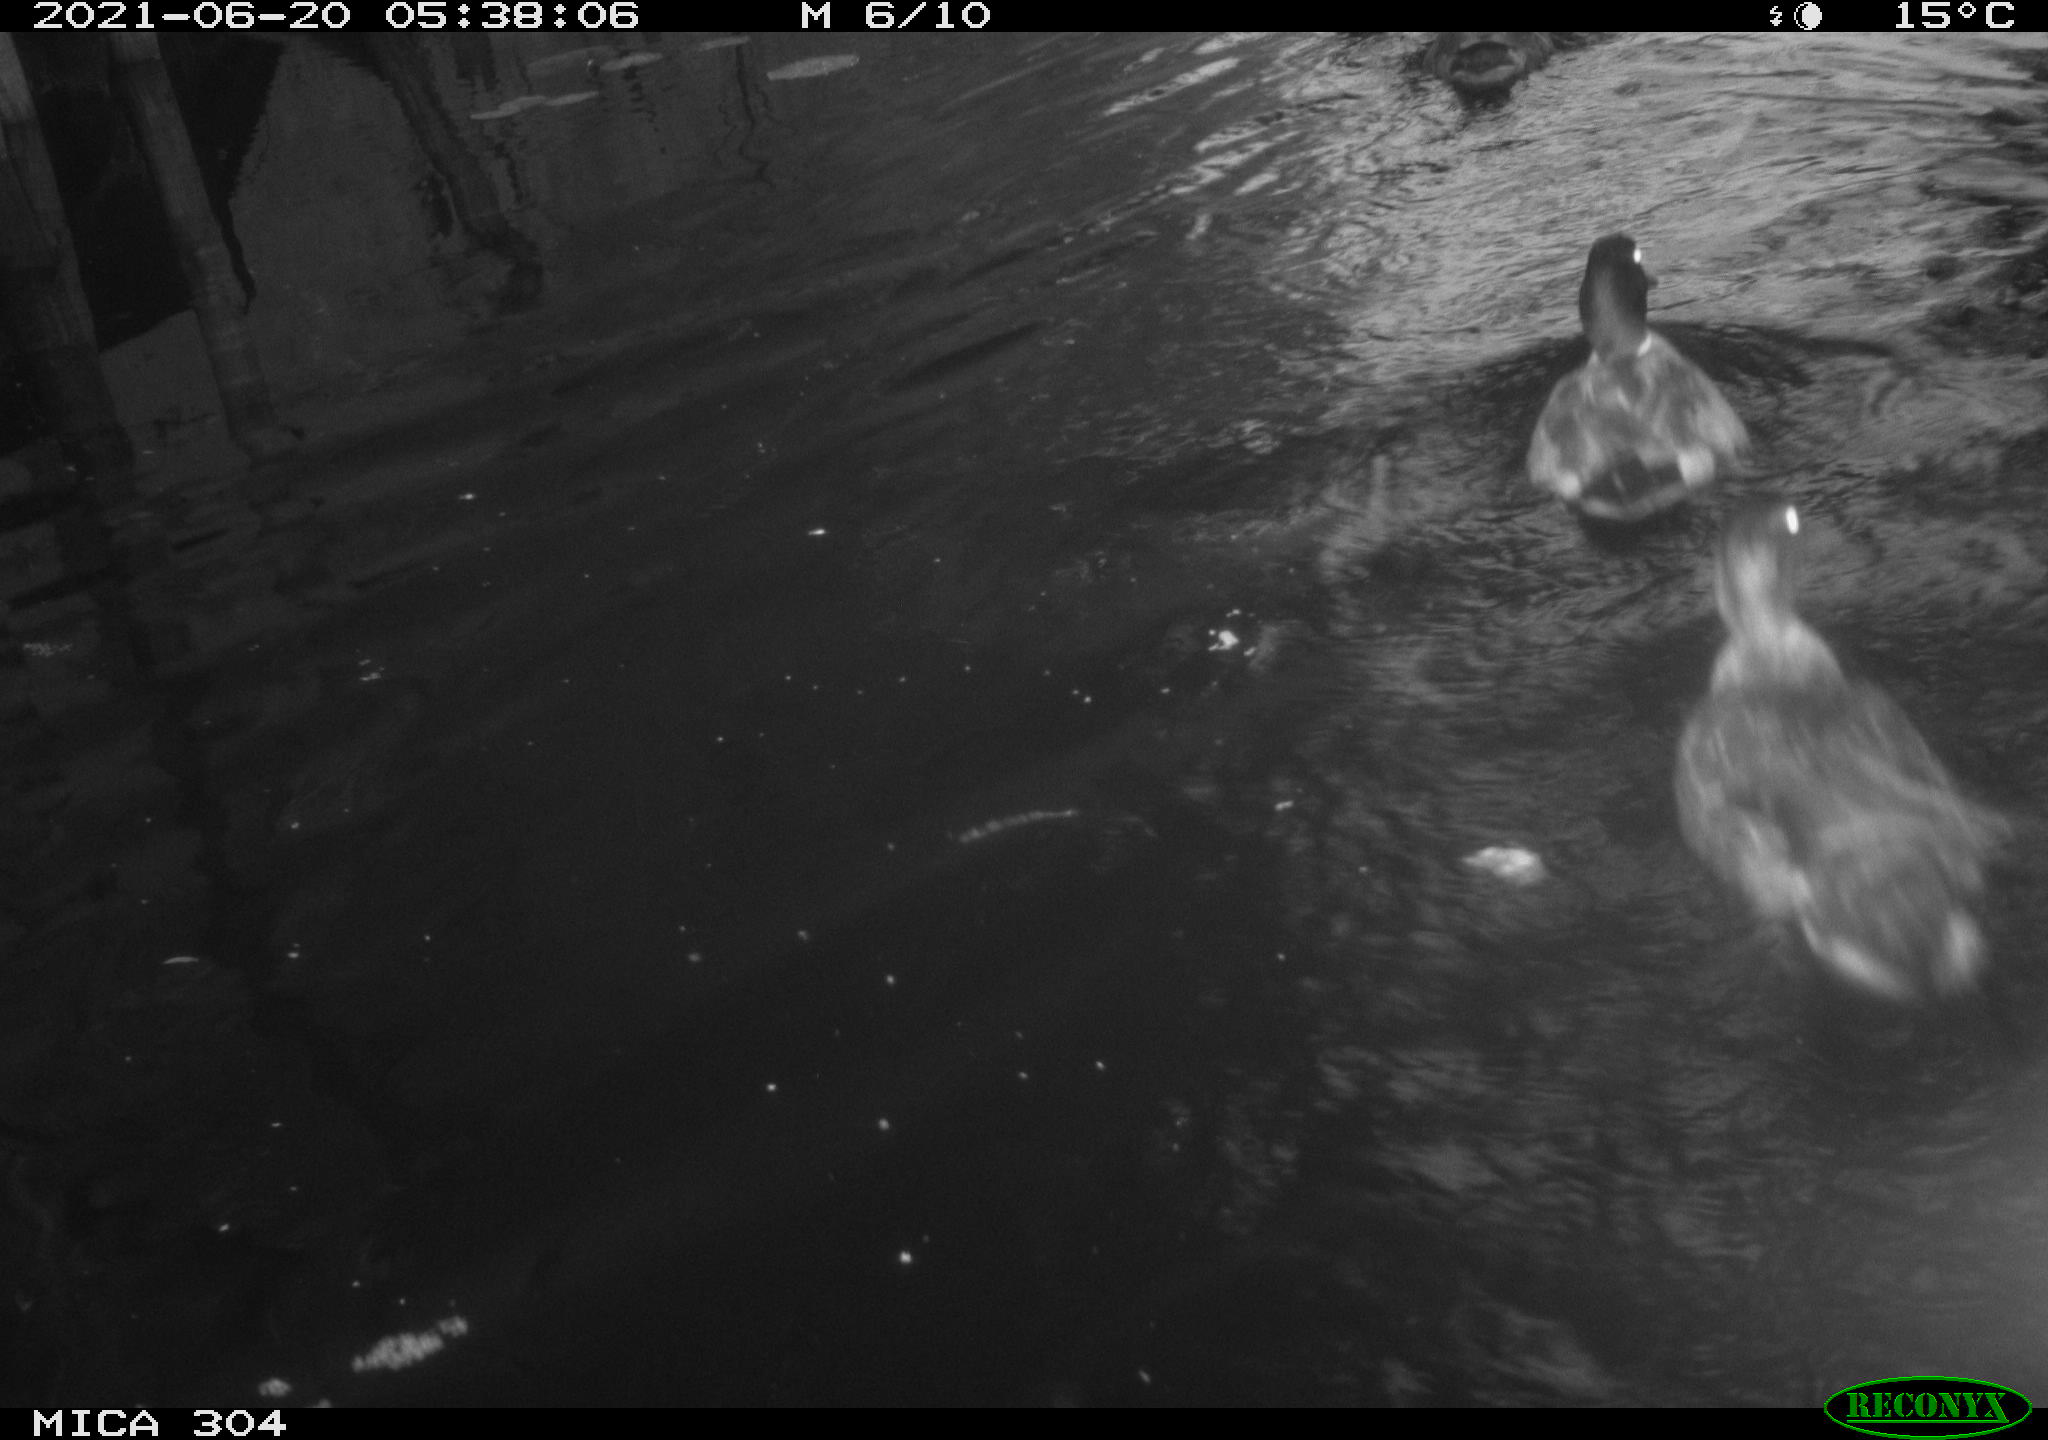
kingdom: Animalia
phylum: Chordata
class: Aves
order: Anseriformes
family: Anatidae
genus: Mareca
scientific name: Mareca strepera
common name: Gadwall
